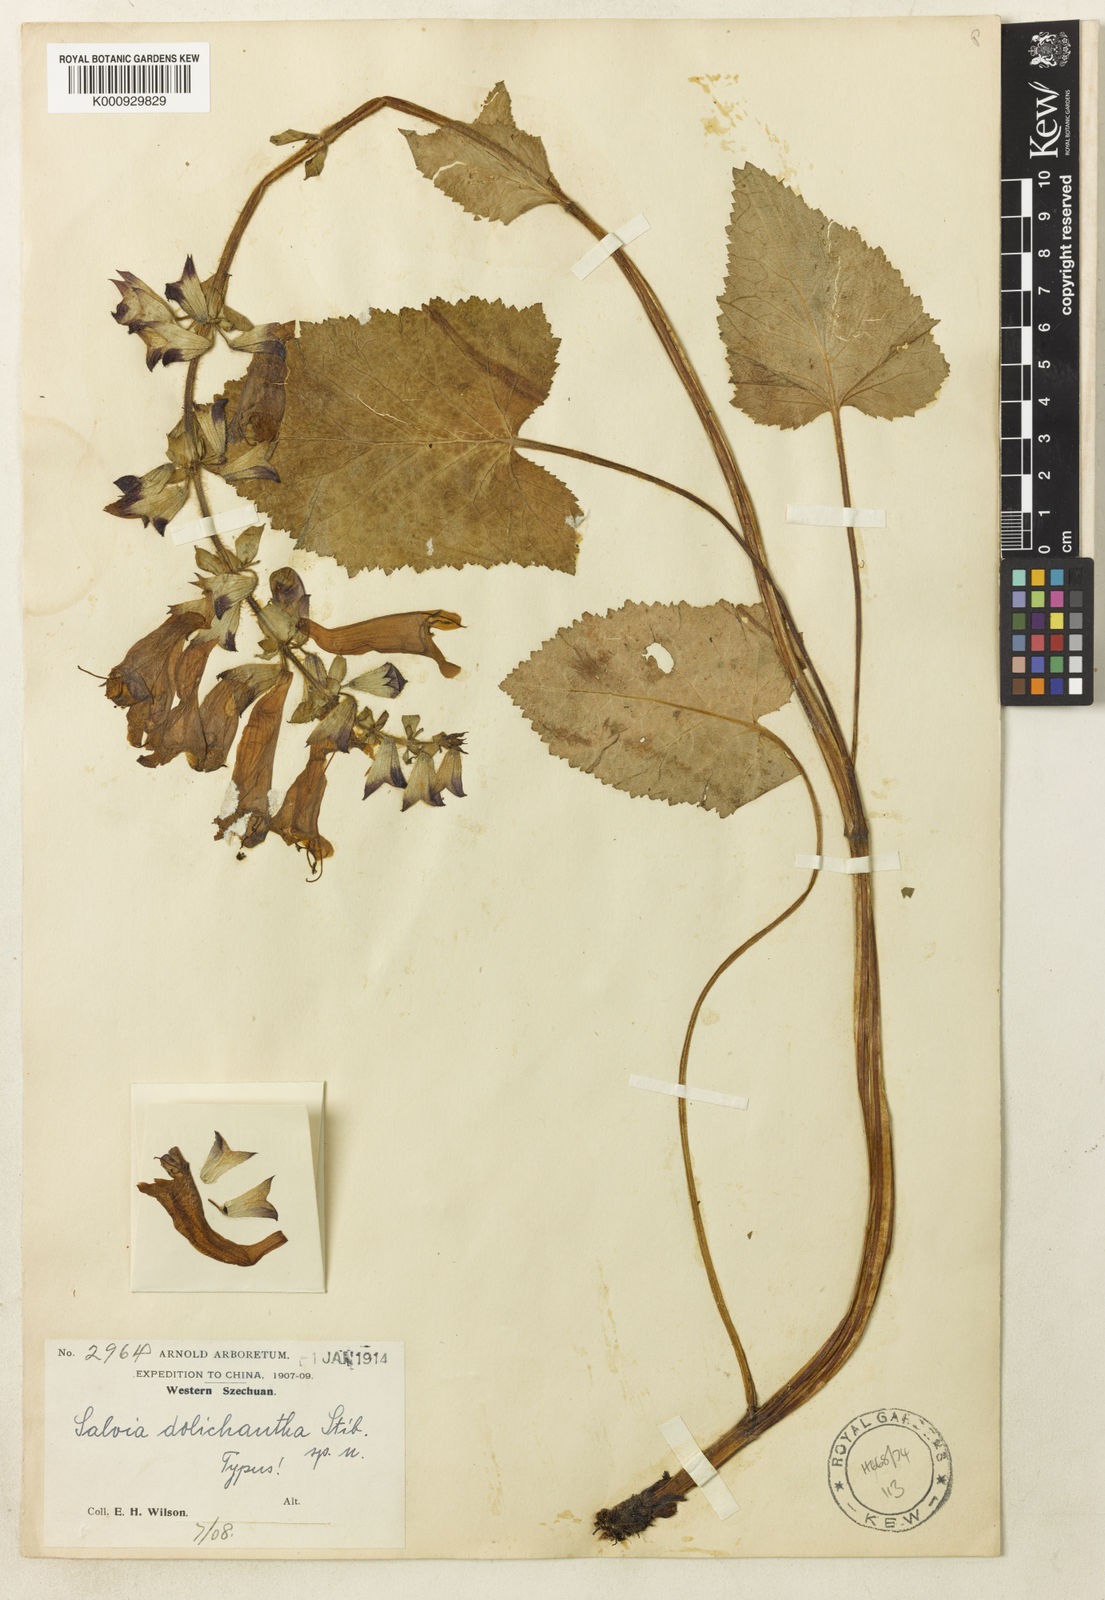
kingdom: Plantae
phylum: Tracheophyta
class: Magnoliopsida
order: Lamiales
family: Lamiaceae
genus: Salvia
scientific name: Salvia
